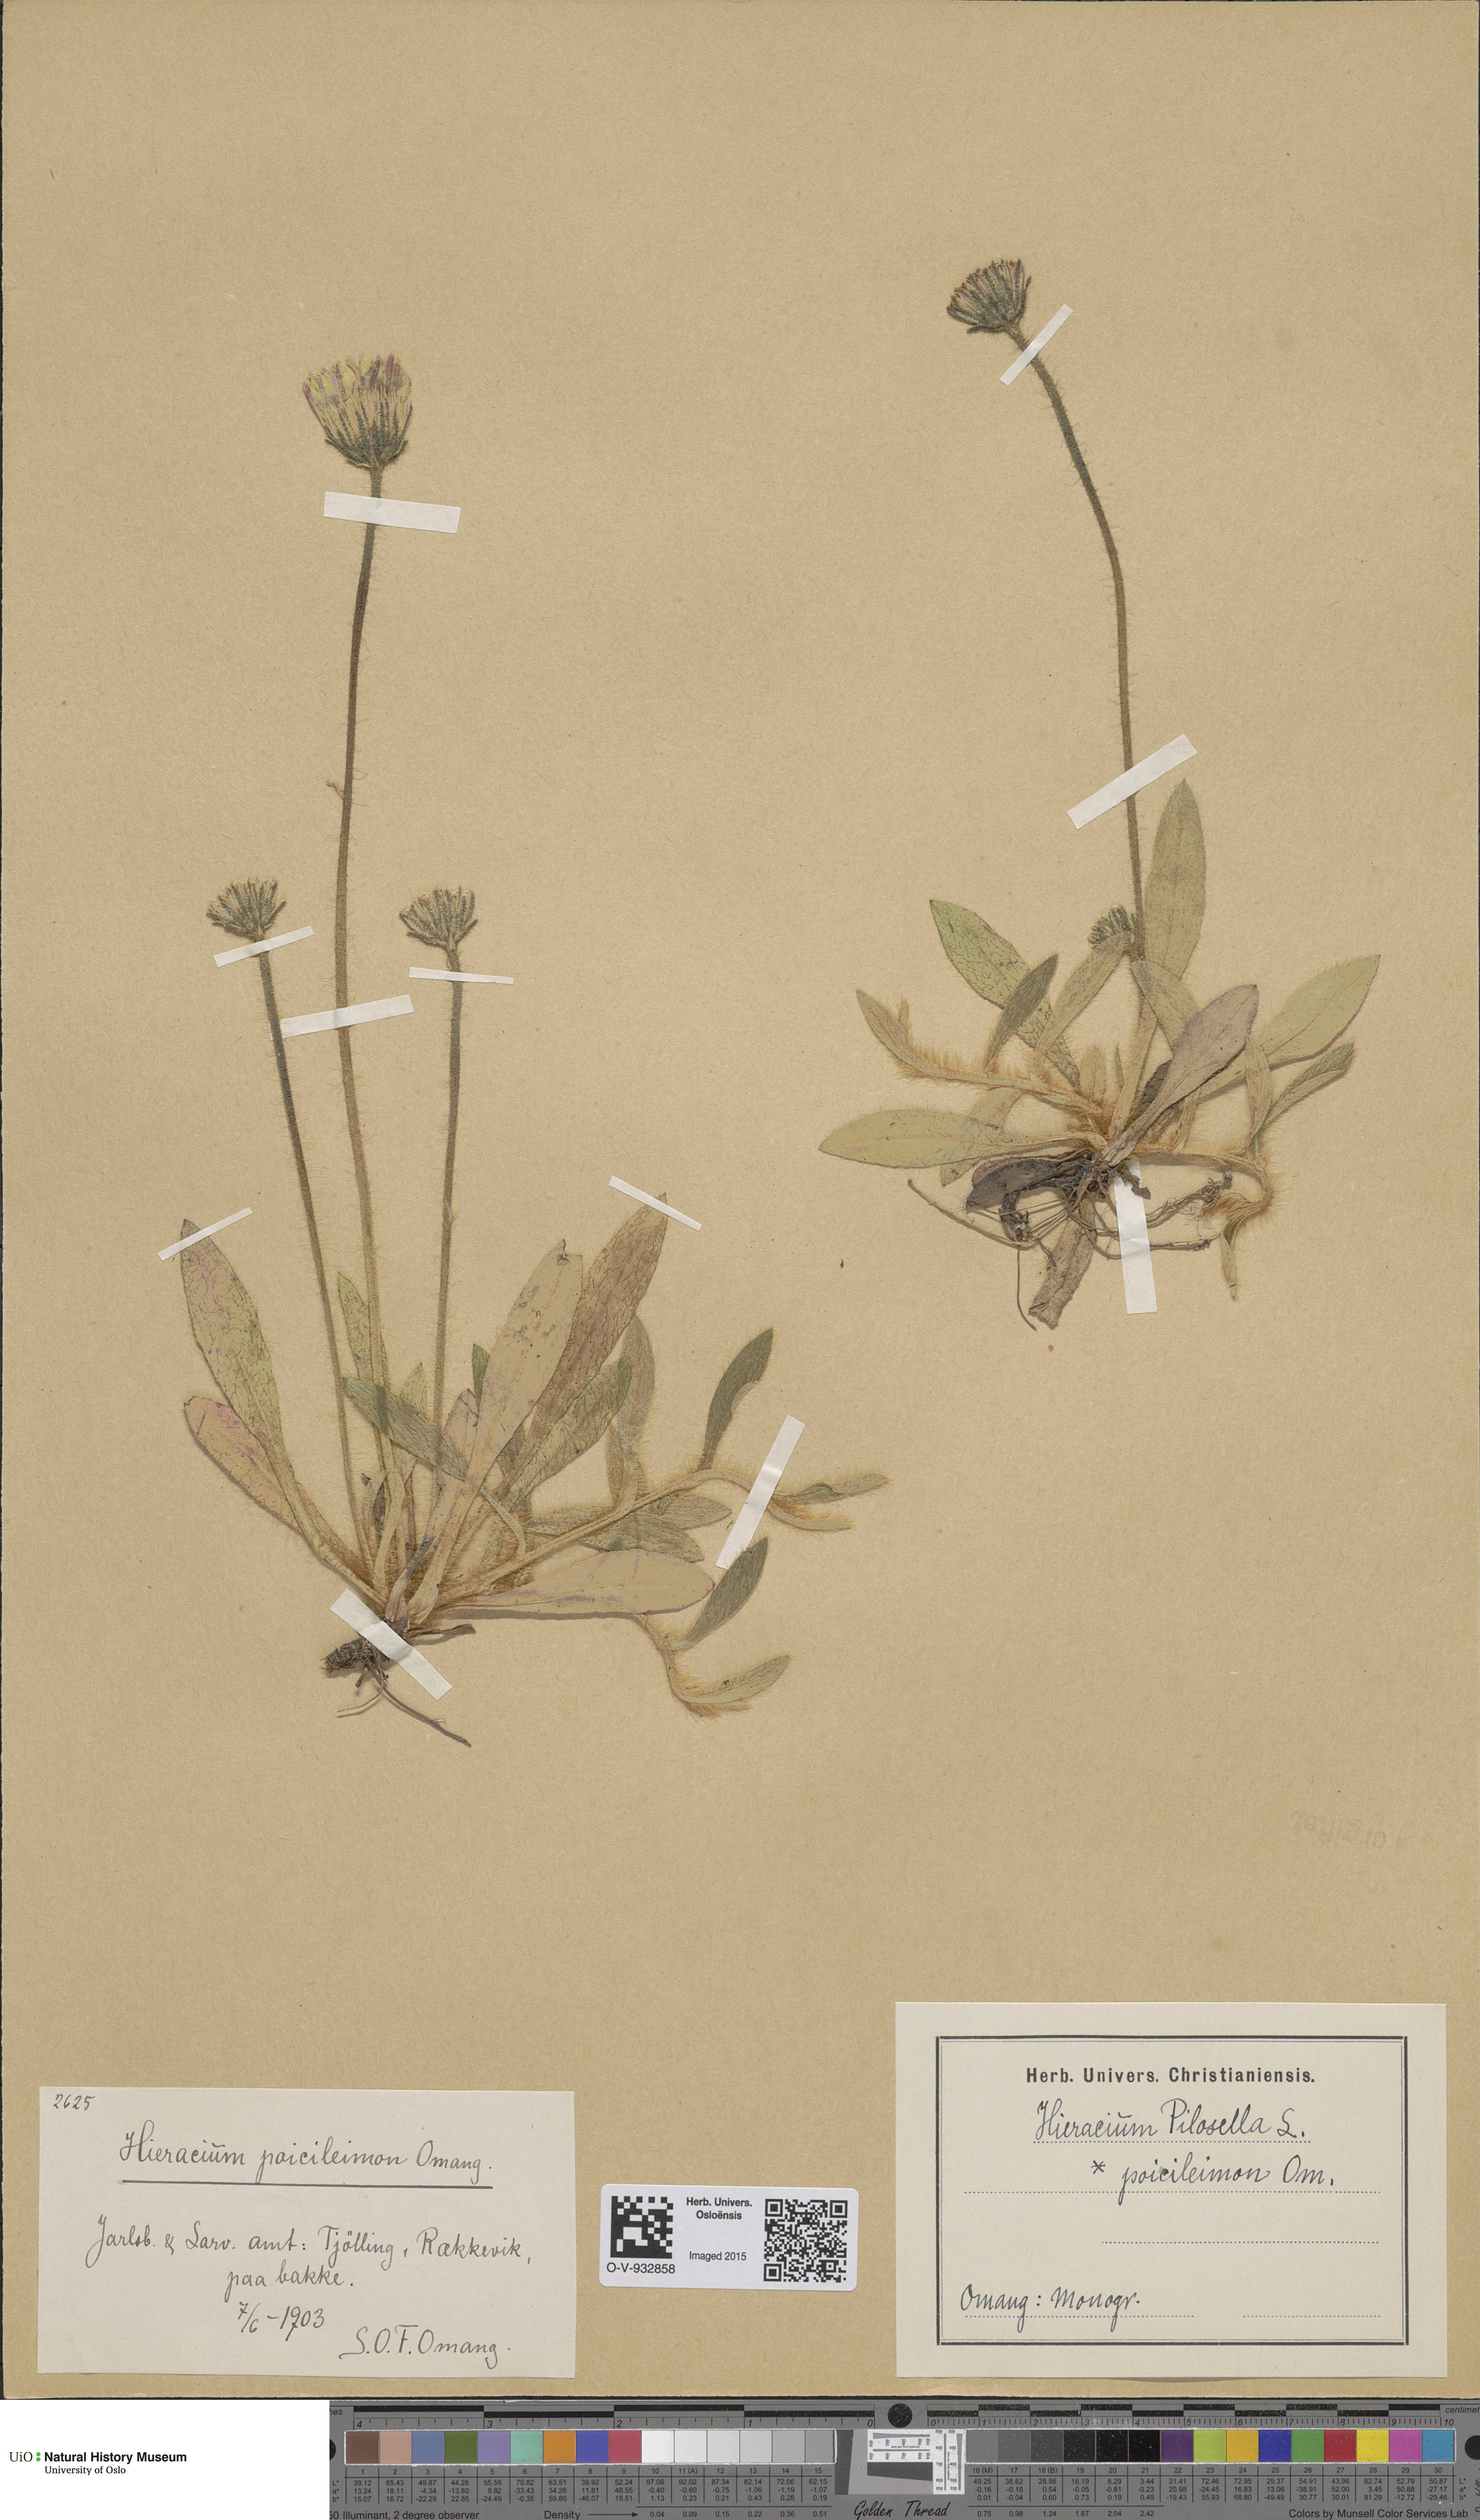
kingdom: Plantae
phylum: Tracheophyta
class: Magnoliopsida
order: Asterales
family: Asteraceae
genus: Pilosella
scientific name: Pilosella officinarum
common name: Mouse-ear hawkweed
